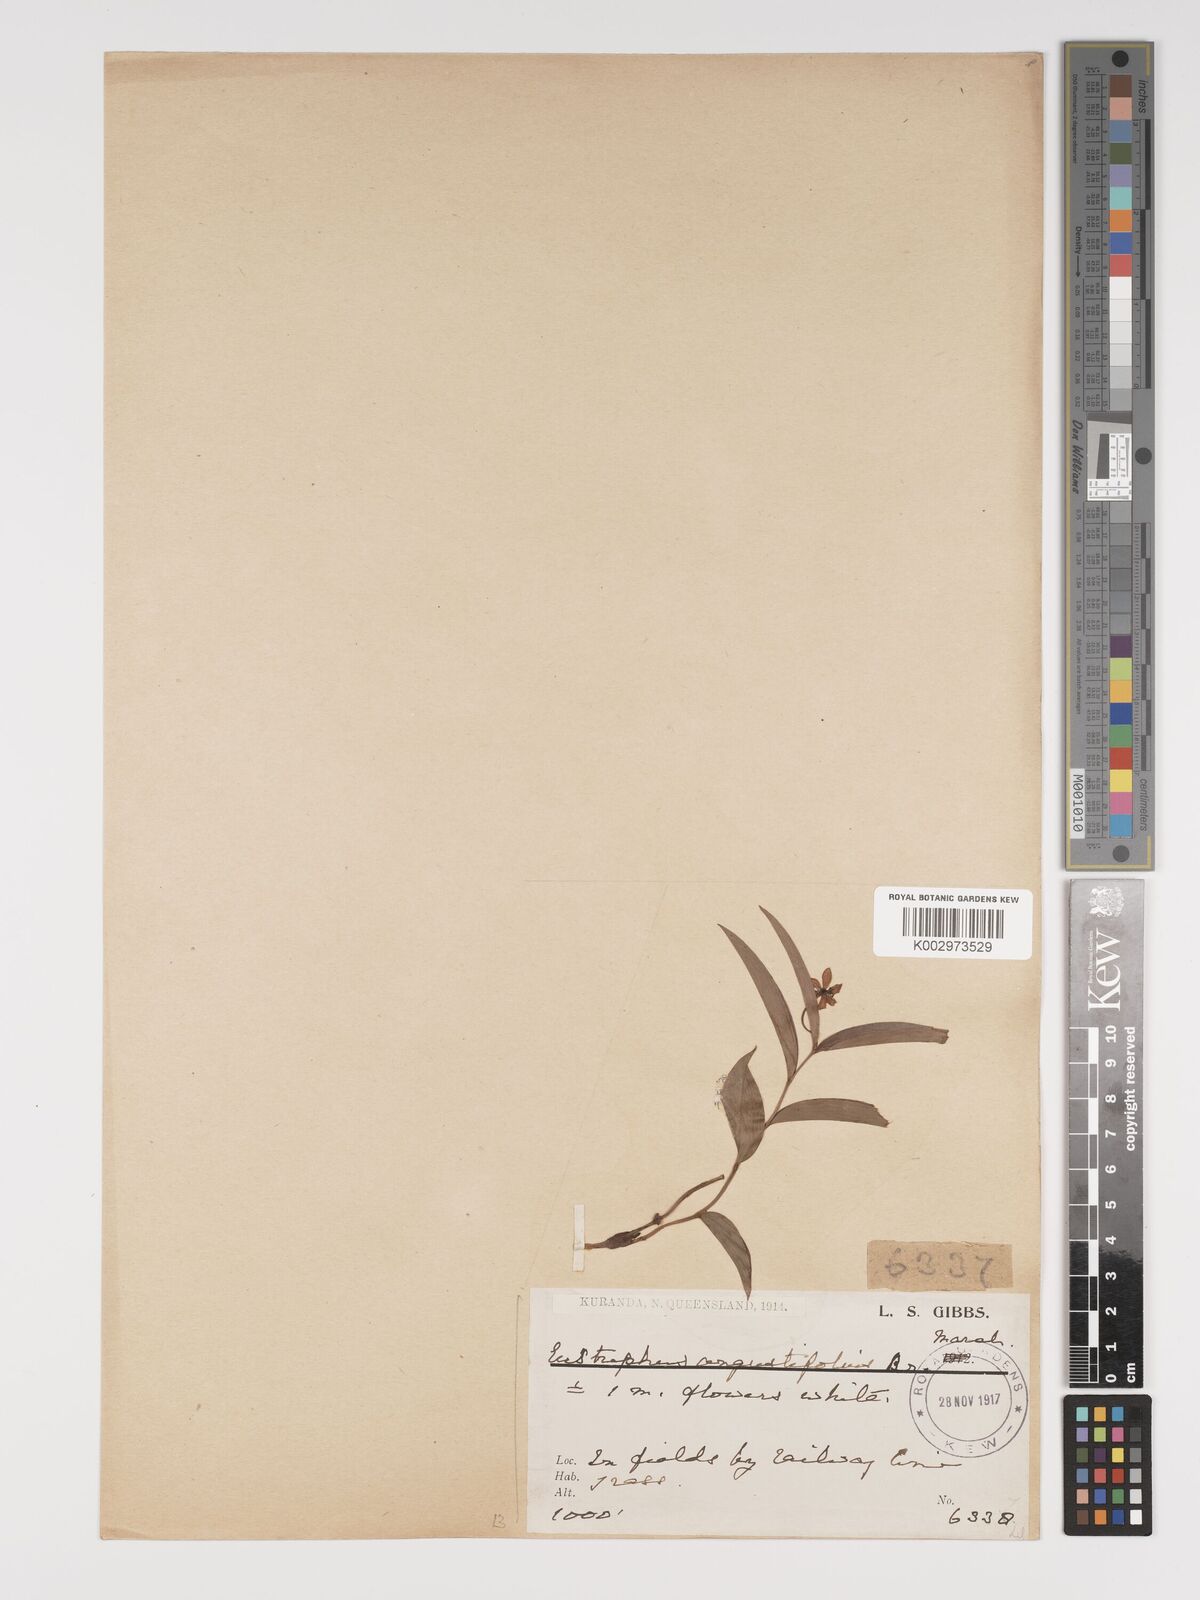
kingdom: Plantae
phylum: Tracheophyta
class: Liliopsida
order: Asparagales
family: Asparagaceae
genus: Eustrephus
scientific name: Eustrephus latifolius
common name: Orangevine
